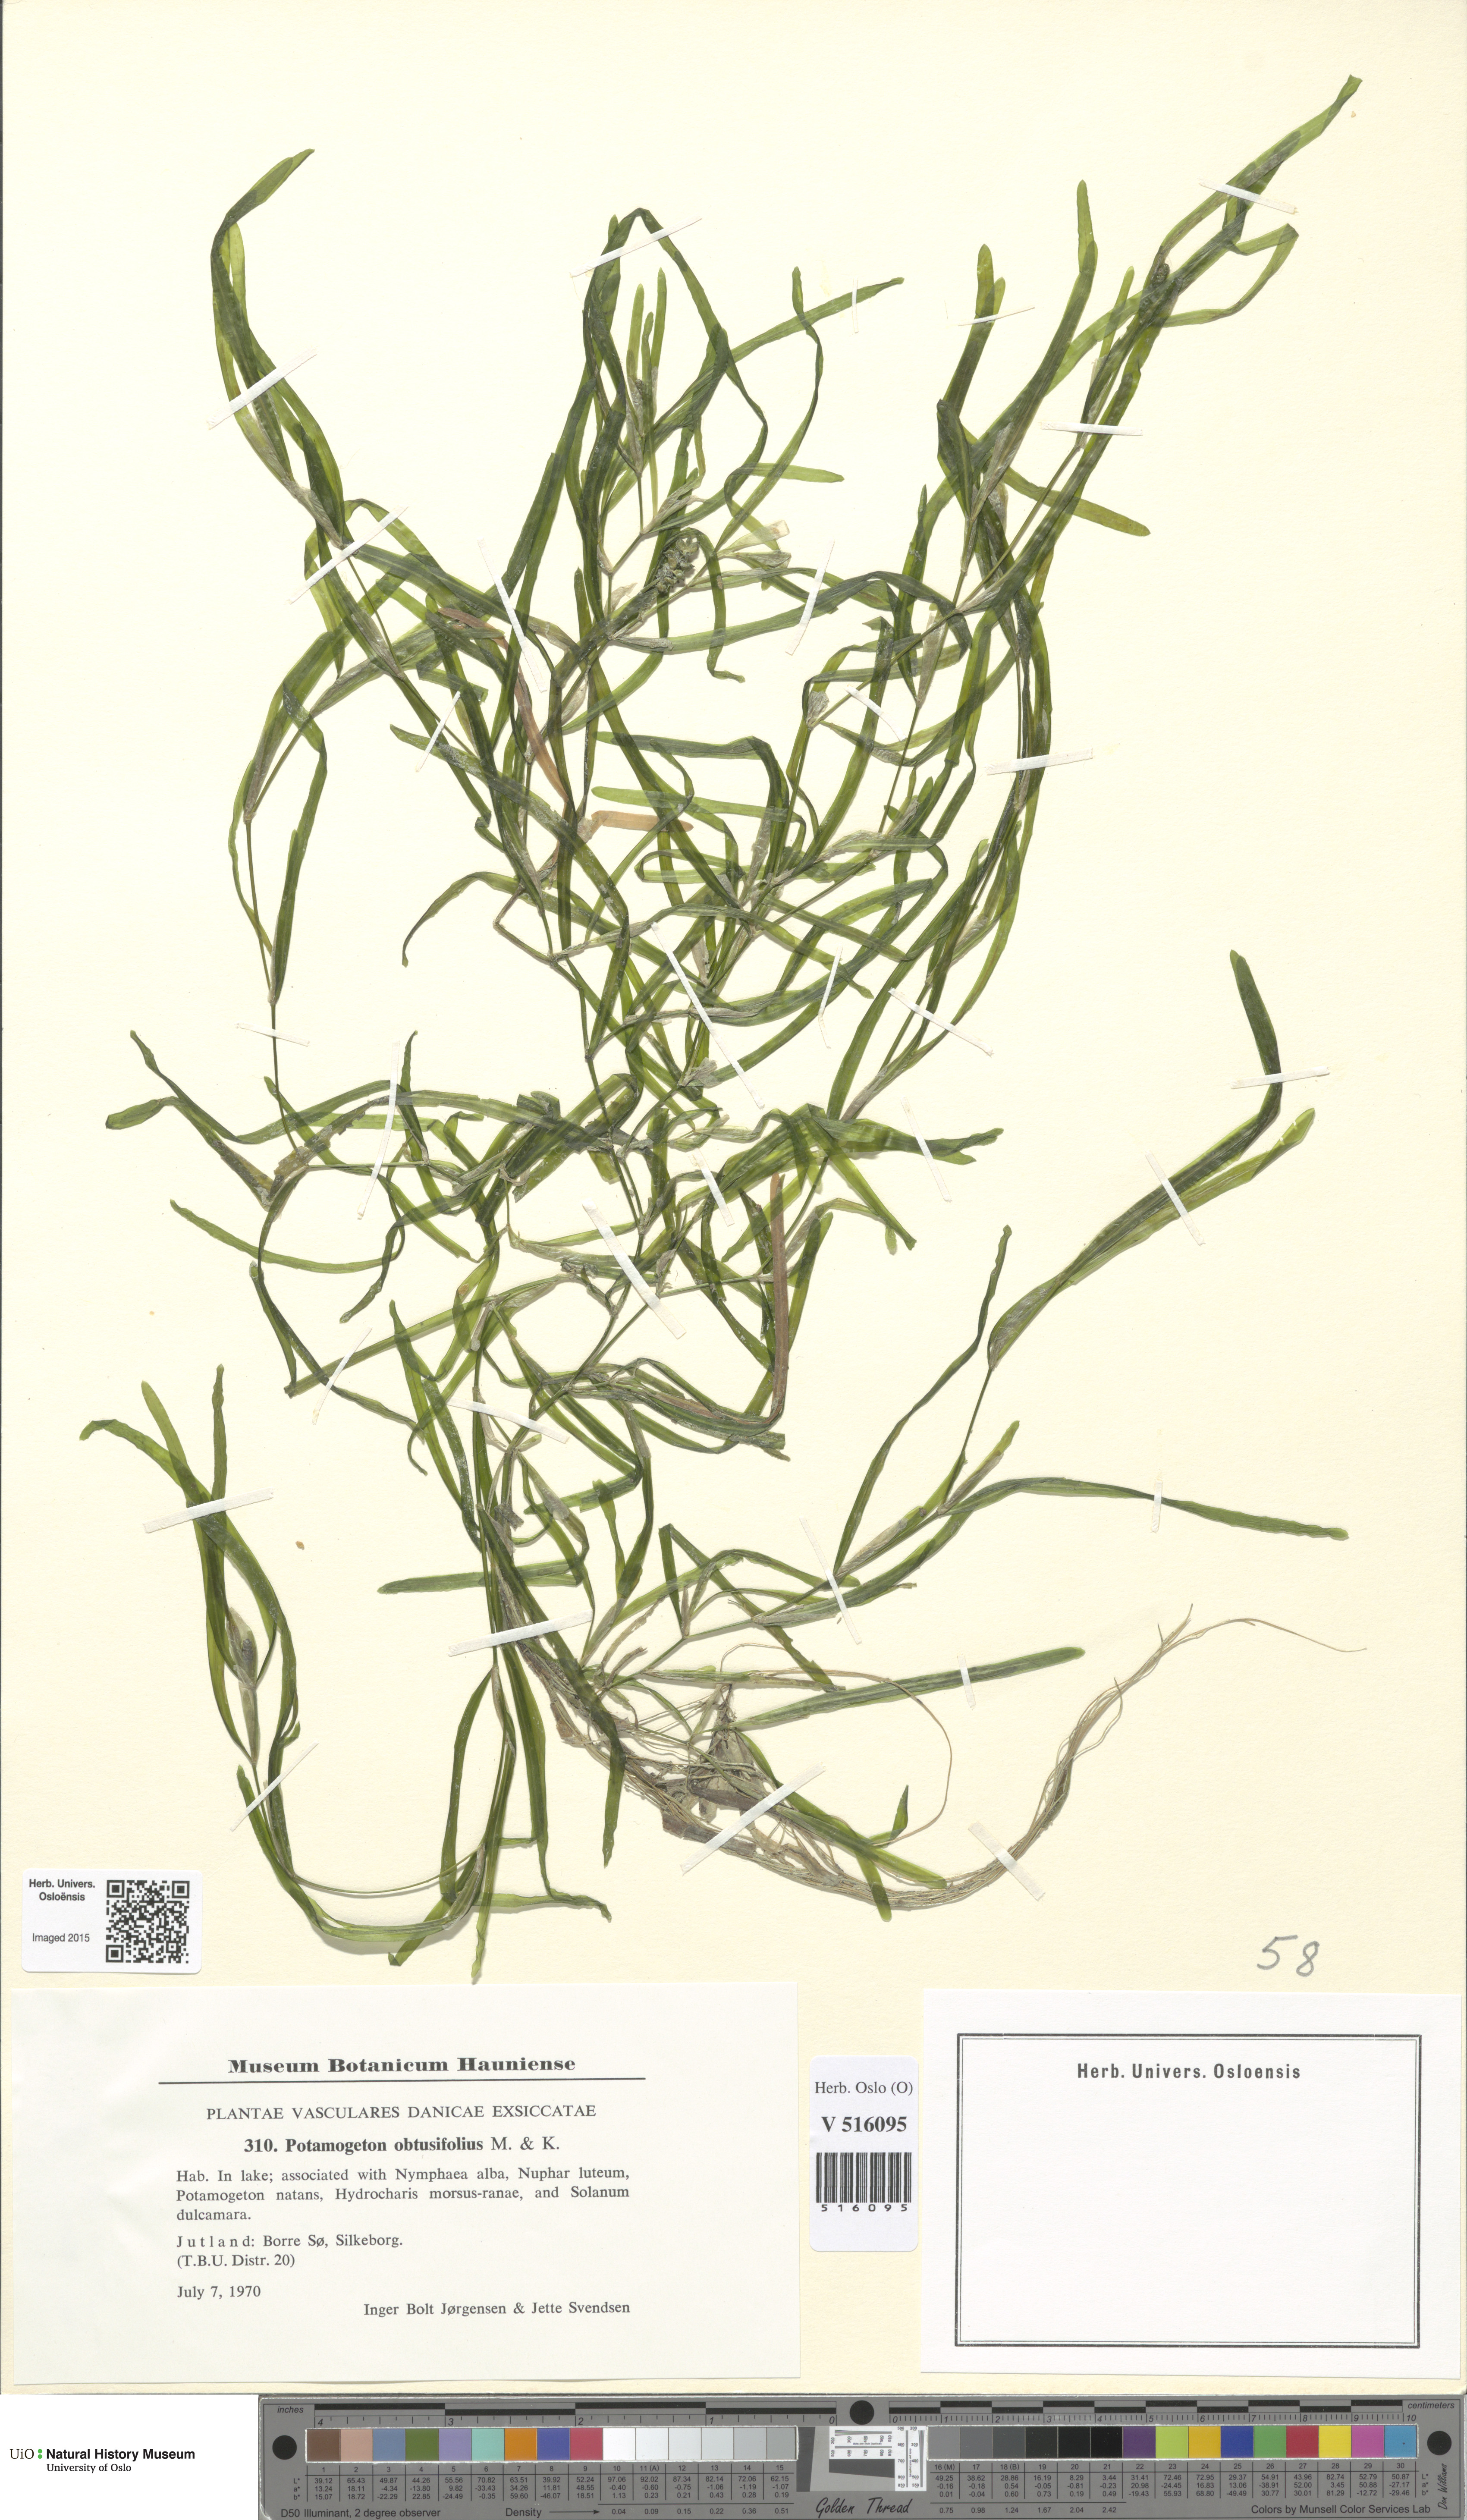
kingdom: Plantae
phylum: Tracheophyta
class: Liliopsida
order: Alismatales
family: Potamogetonaceae
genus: Potamogeton
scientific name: Potamogeton obtusifolius
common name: Blunt-leaved pondweed
